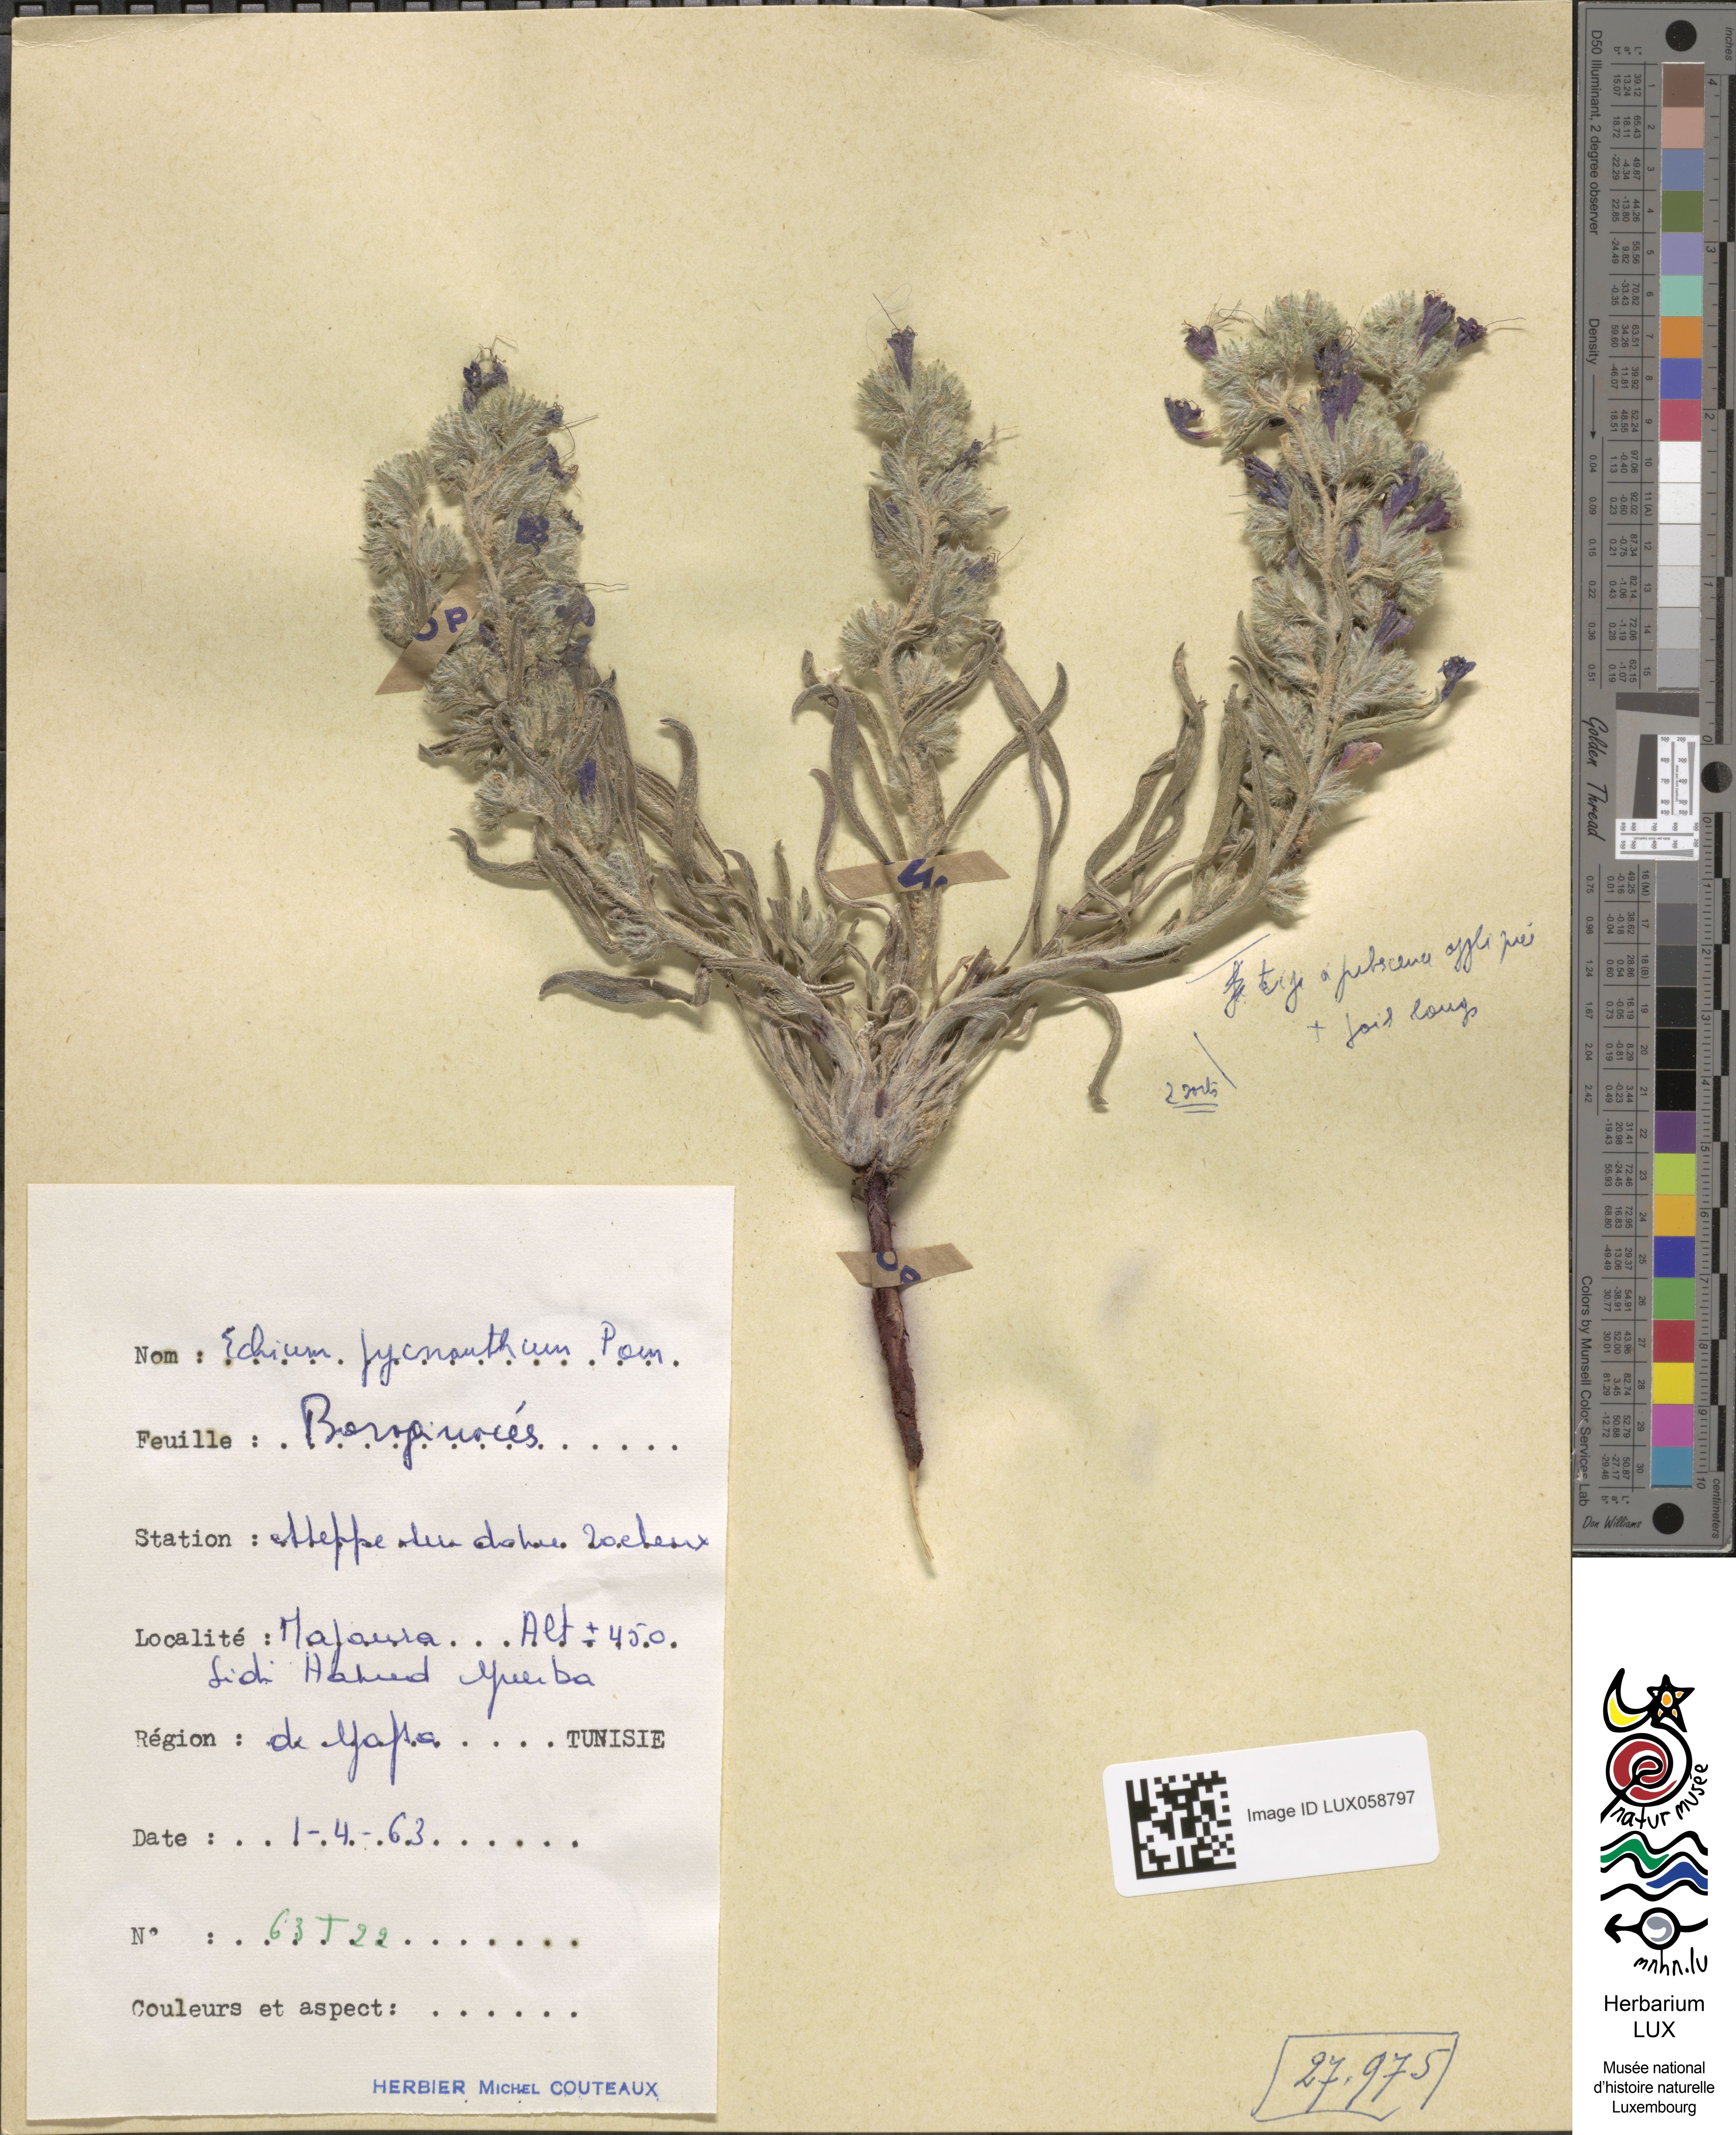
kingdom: Plantae
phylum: Tracheophyta
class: Magnoliopsida
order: Boraginales
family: Boraginaceae
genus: Echium
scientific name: Echium humile
